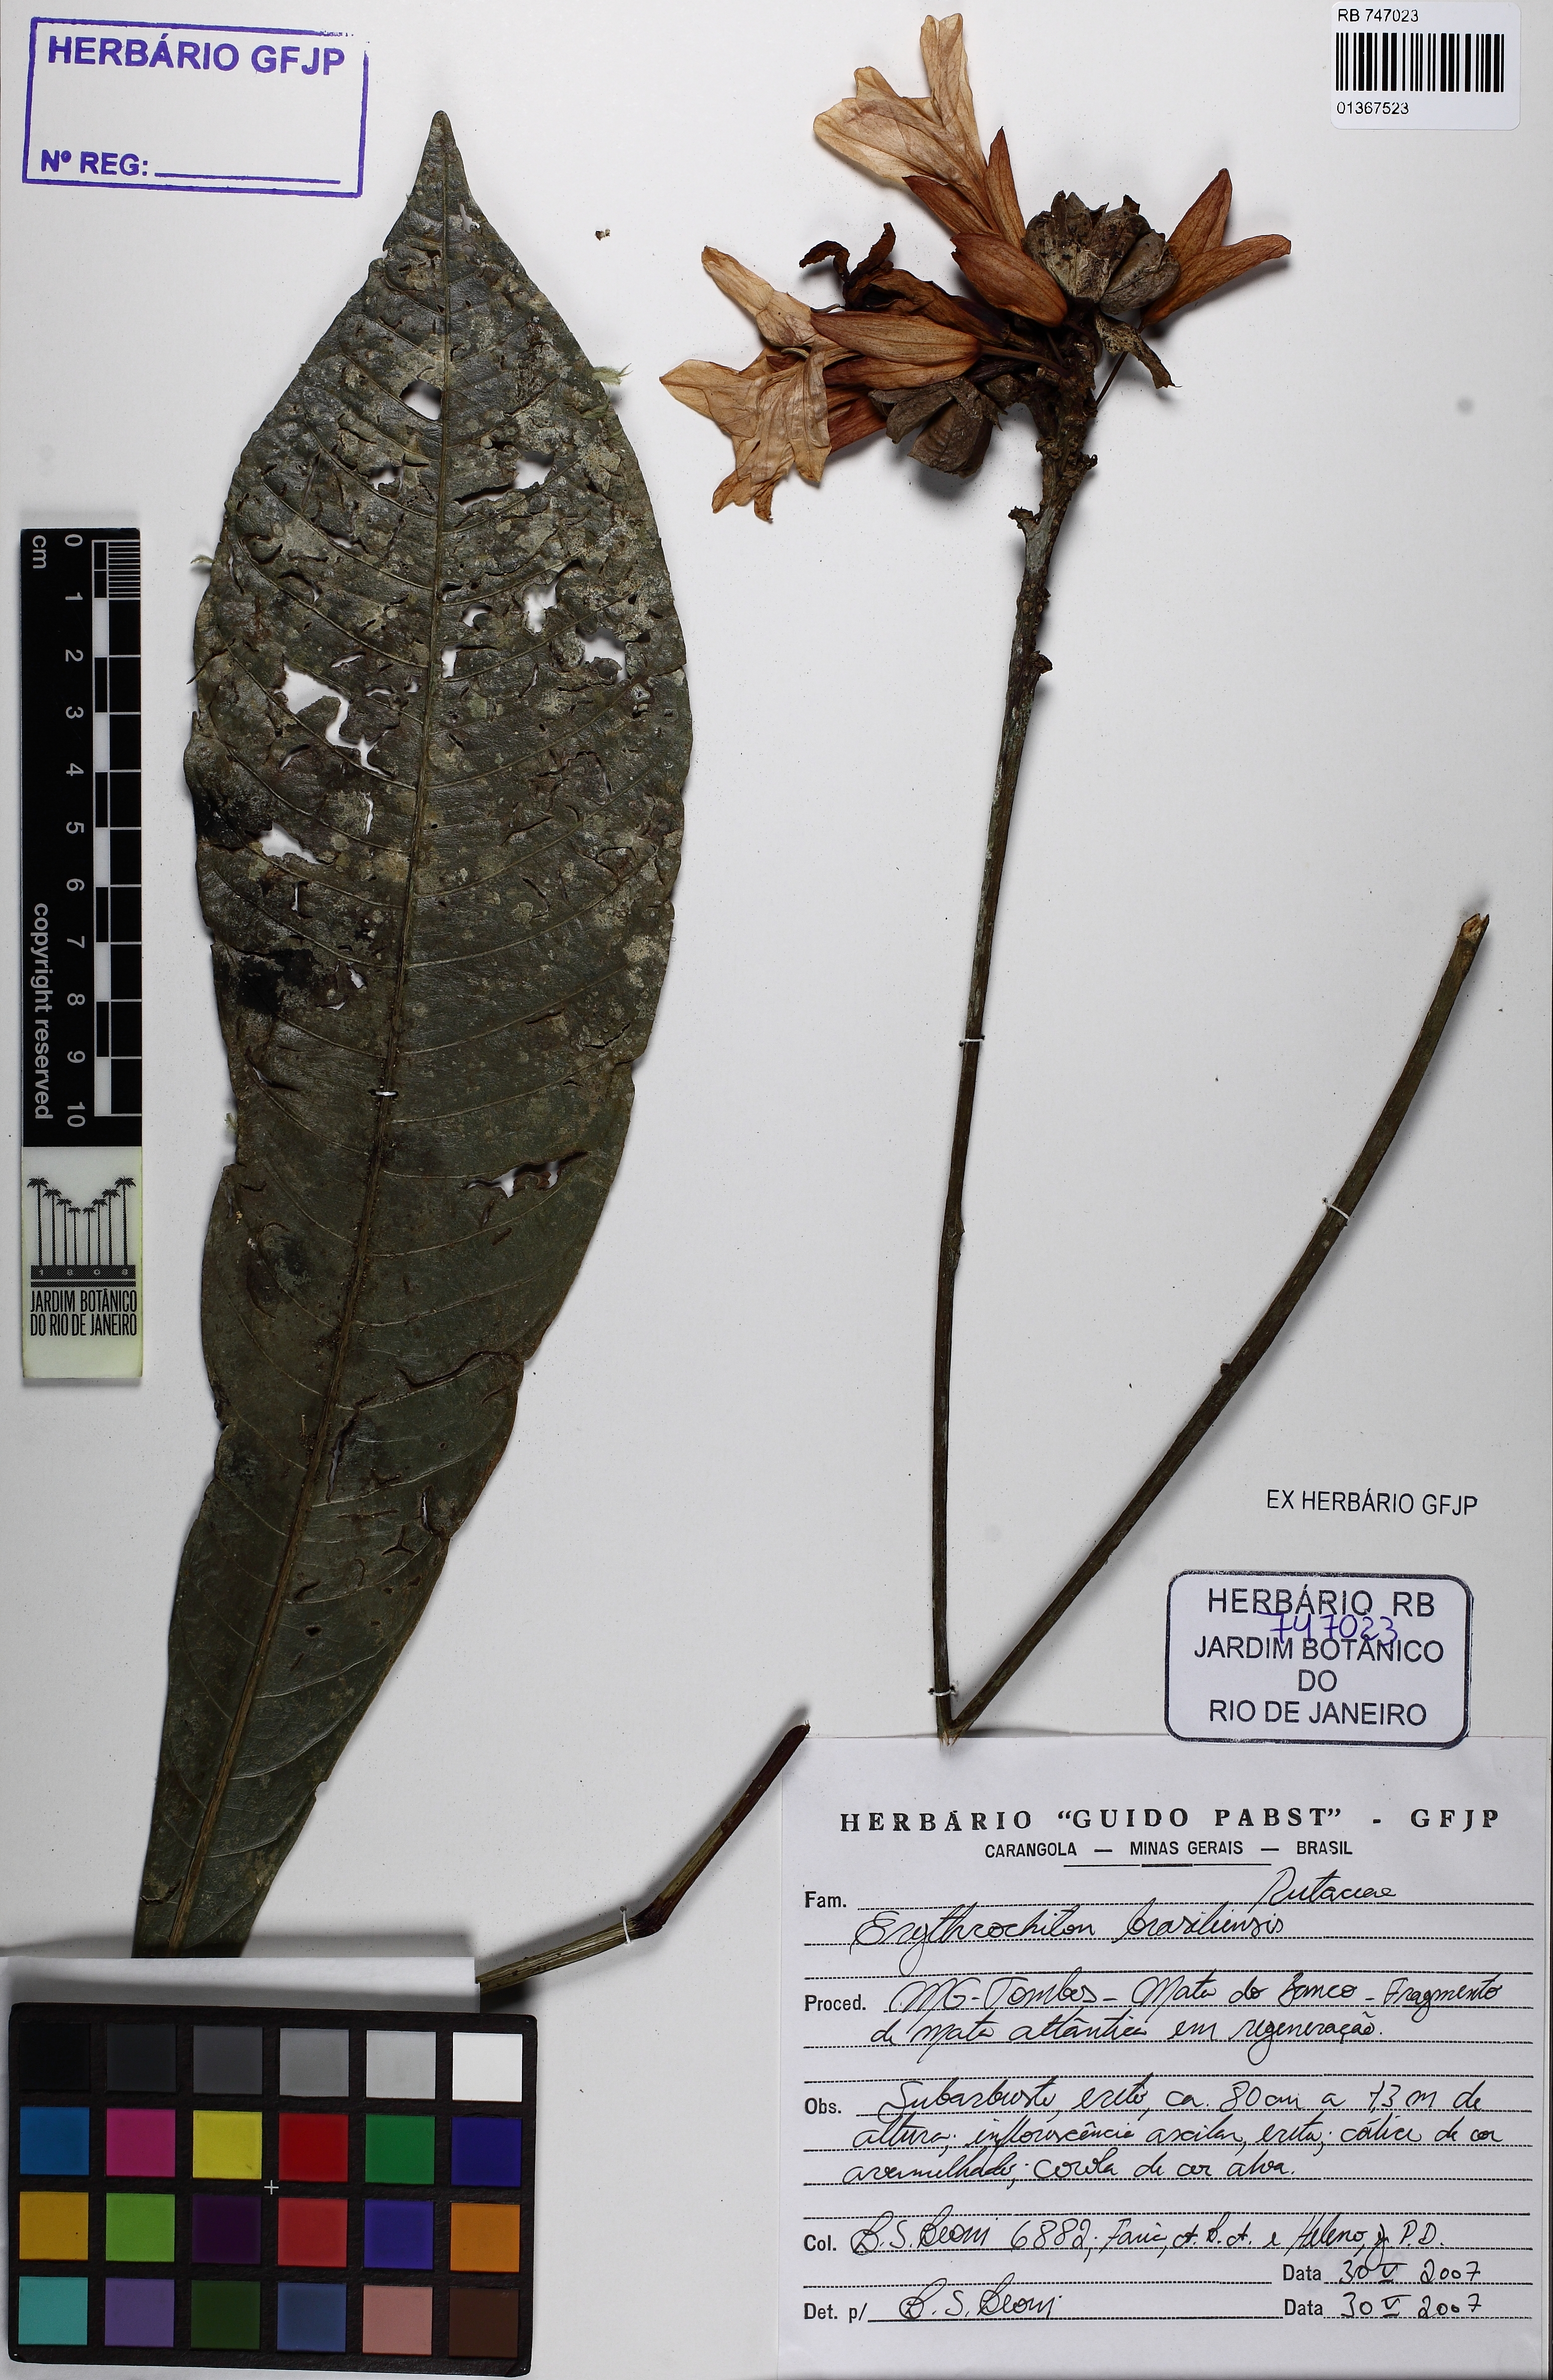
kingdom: Plantae
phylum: Tracheophyta
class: Magnoliopsida
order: Sapindales
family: Rutaceae
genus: Erythrochiton
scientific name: Erythrochiton brasiliensis
